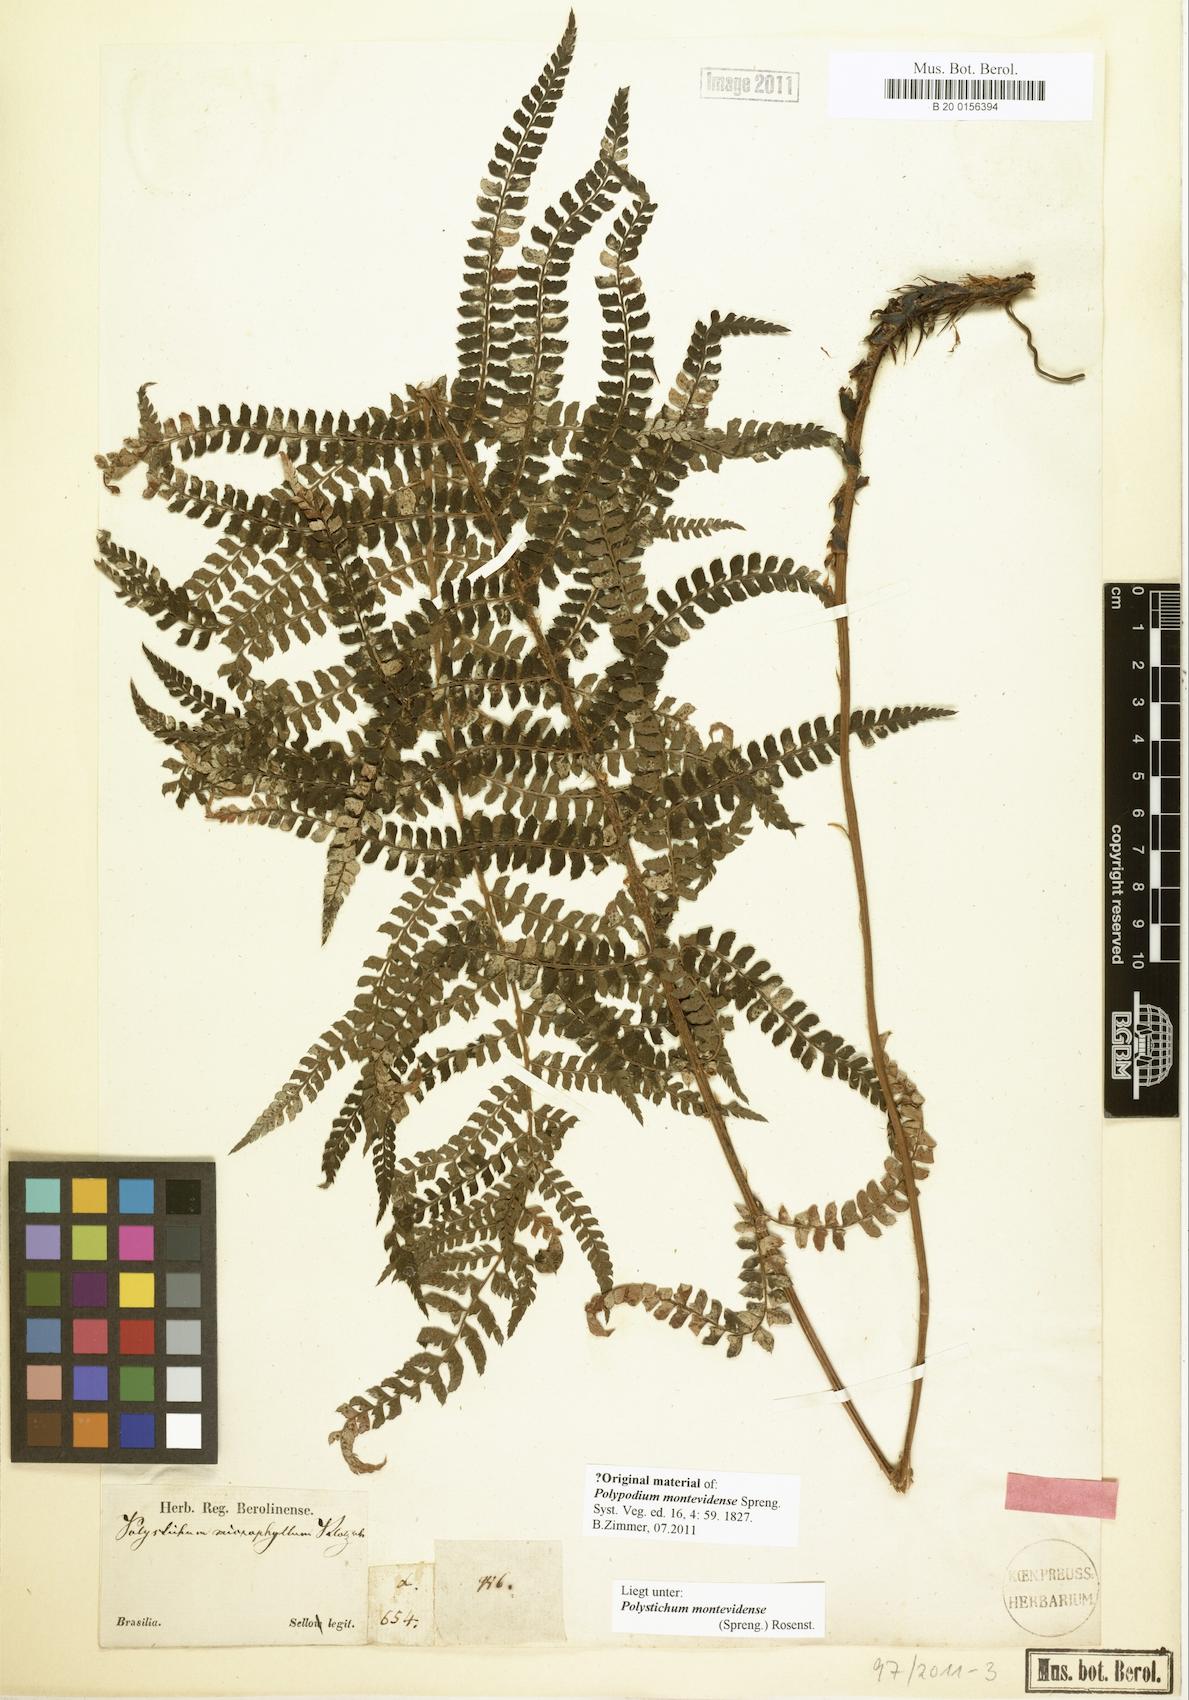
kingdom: Plantae
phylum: Tracheophyta
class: Polypodiopsida
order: Polypodiales
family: Dryopteridaceae
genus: Polystichum
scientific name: Polystichum montevidense
